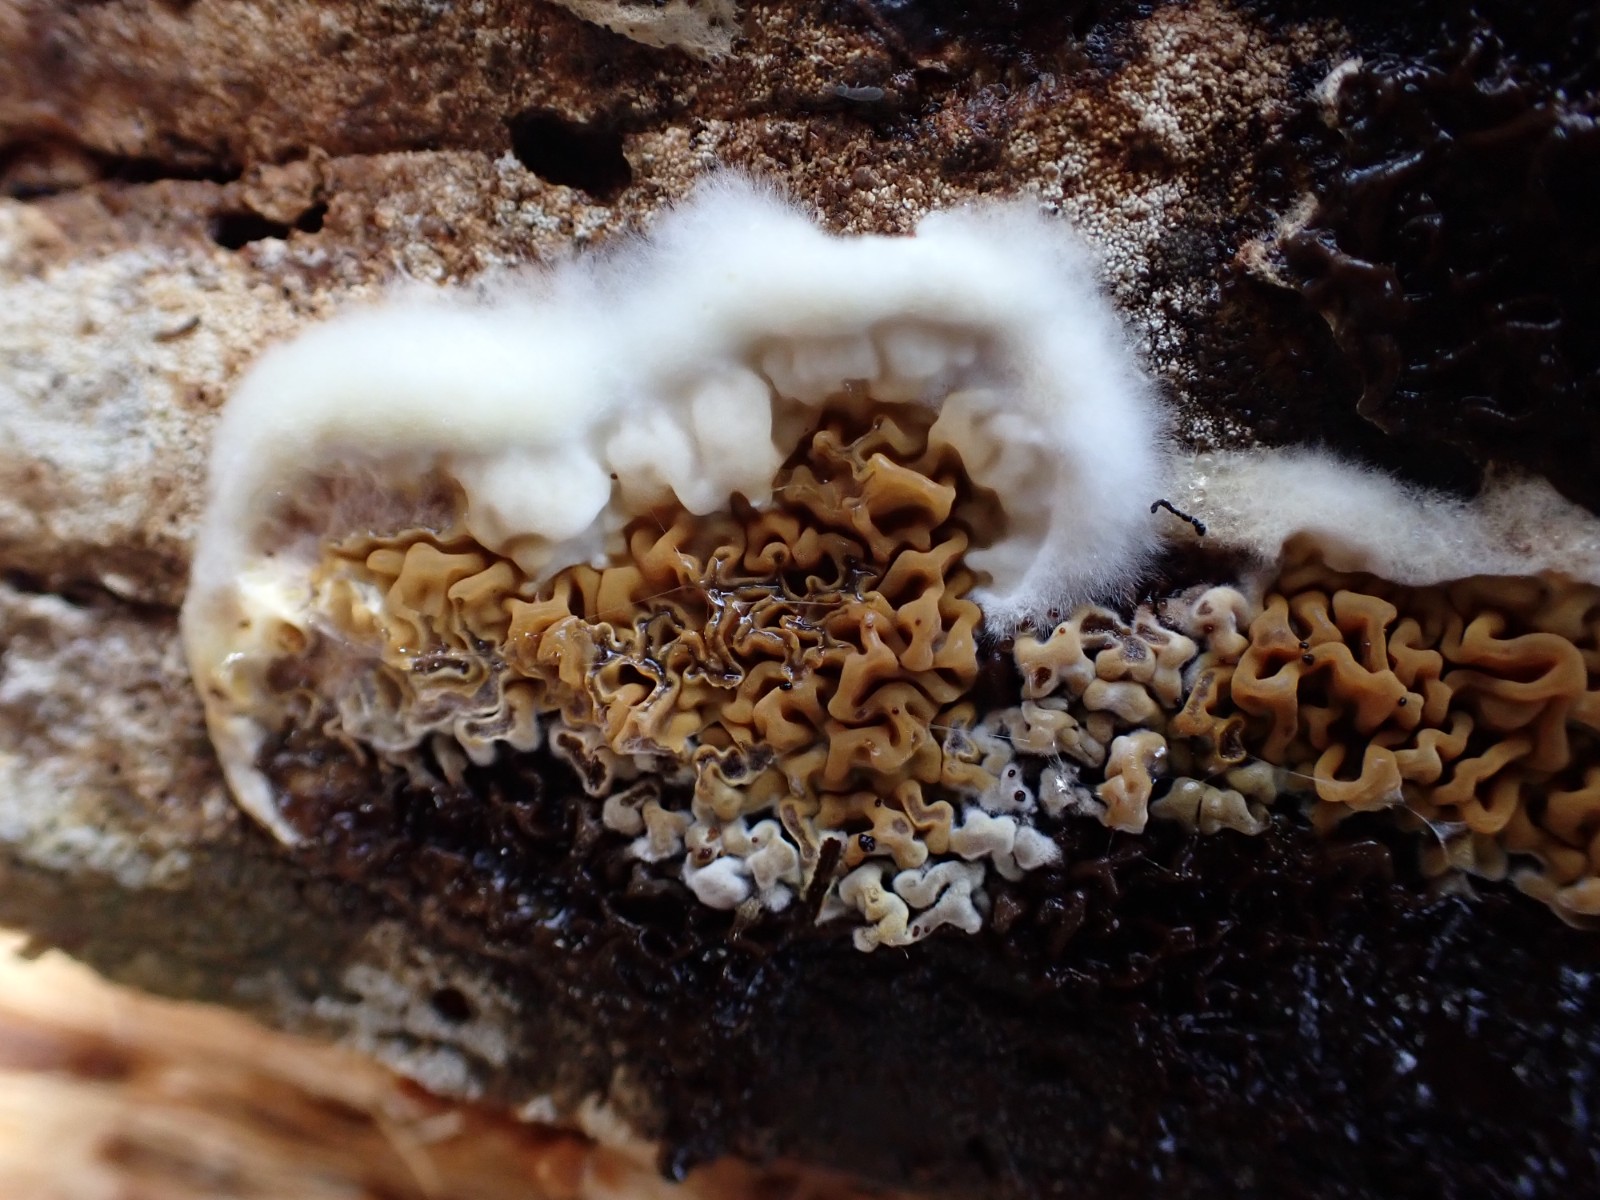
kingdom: Fungi
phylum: Basidiomycota
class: Agaricomycetes
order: Boletales
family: Serpulaceae
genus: Serpula
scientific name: Serpula himantioides
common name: tyndkødet hussvamp
